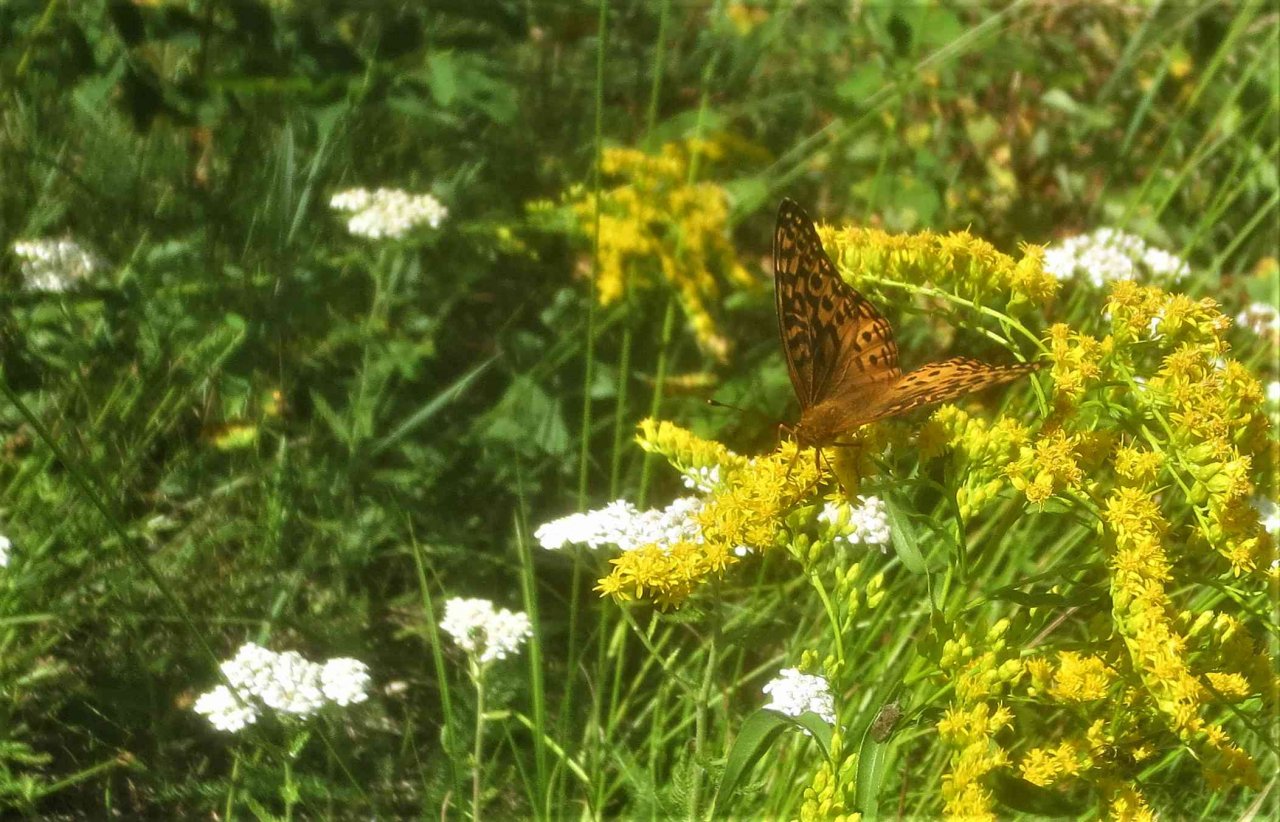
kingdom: Animalia
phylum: Arthropoda
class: Insecta
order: Lepidoptera
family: Nymphalidae
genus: Speyeria
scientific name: Speyeria aphrodite
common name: Aphrodite Fritillary
